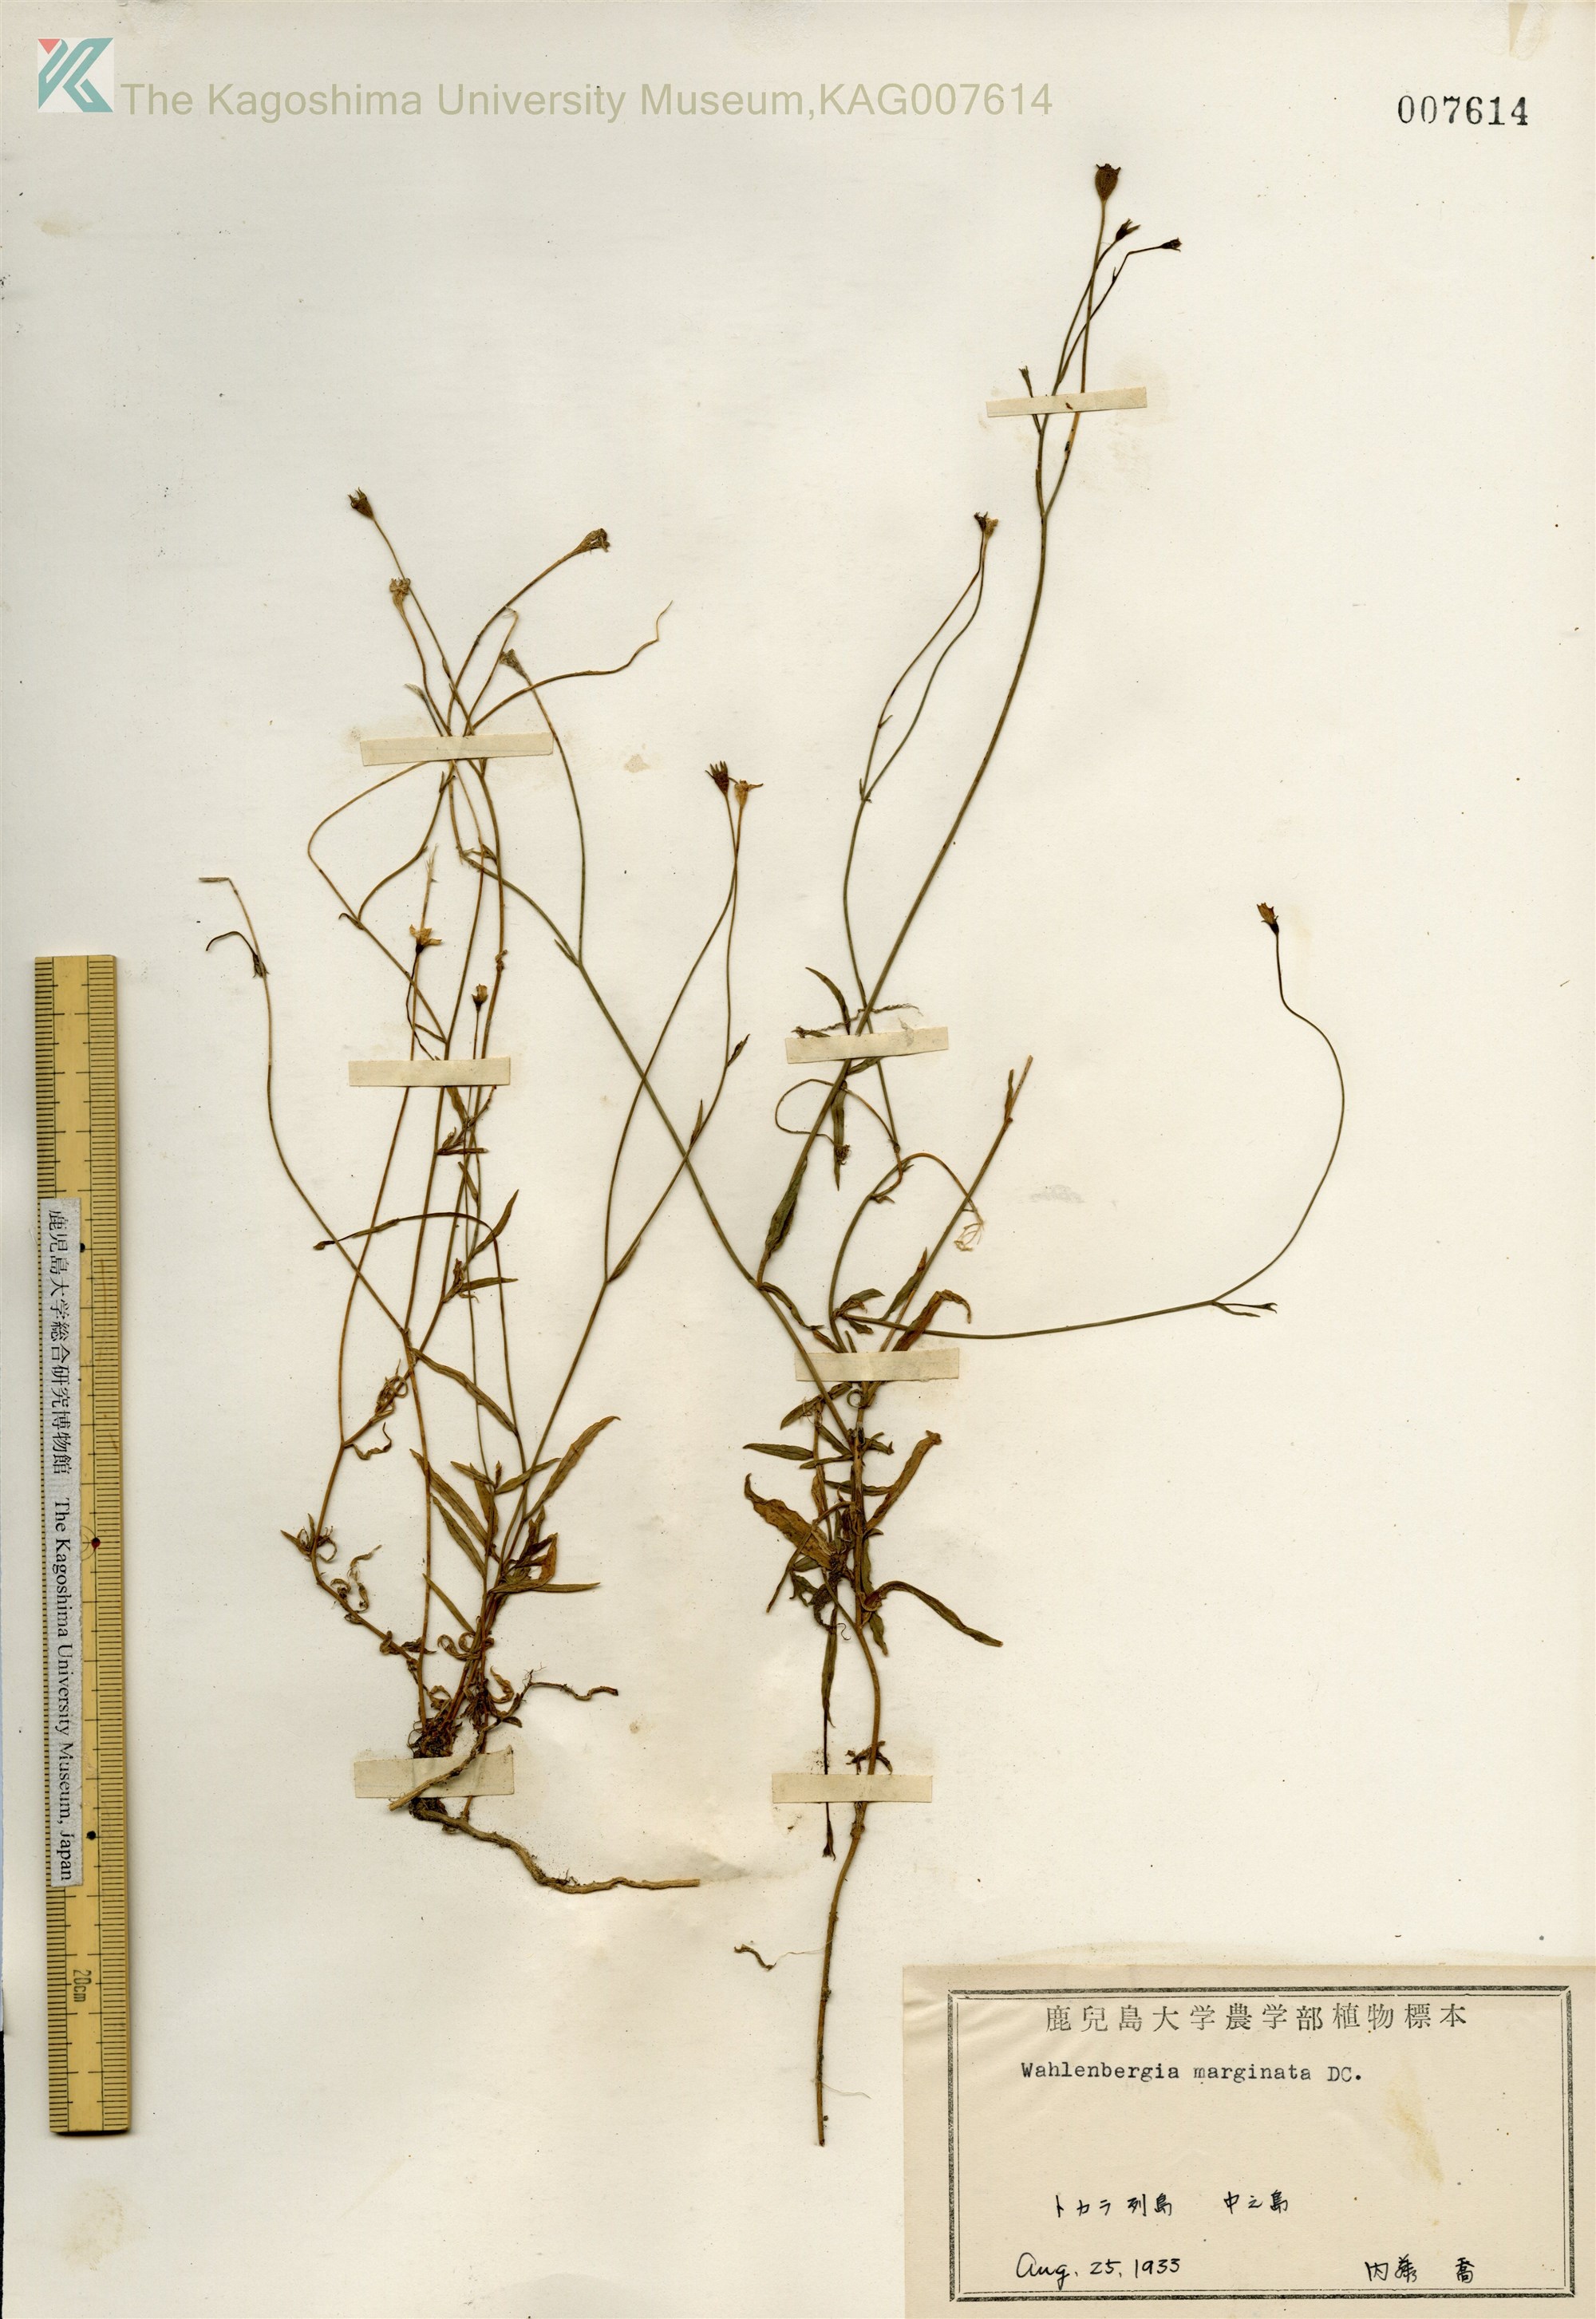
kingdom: Plantae
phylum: Tracheophyta
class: Magnoliopsida
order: Asterales
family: Campanulaceae
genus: Wahlenbergia
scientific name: Wahlenbergia marginata
